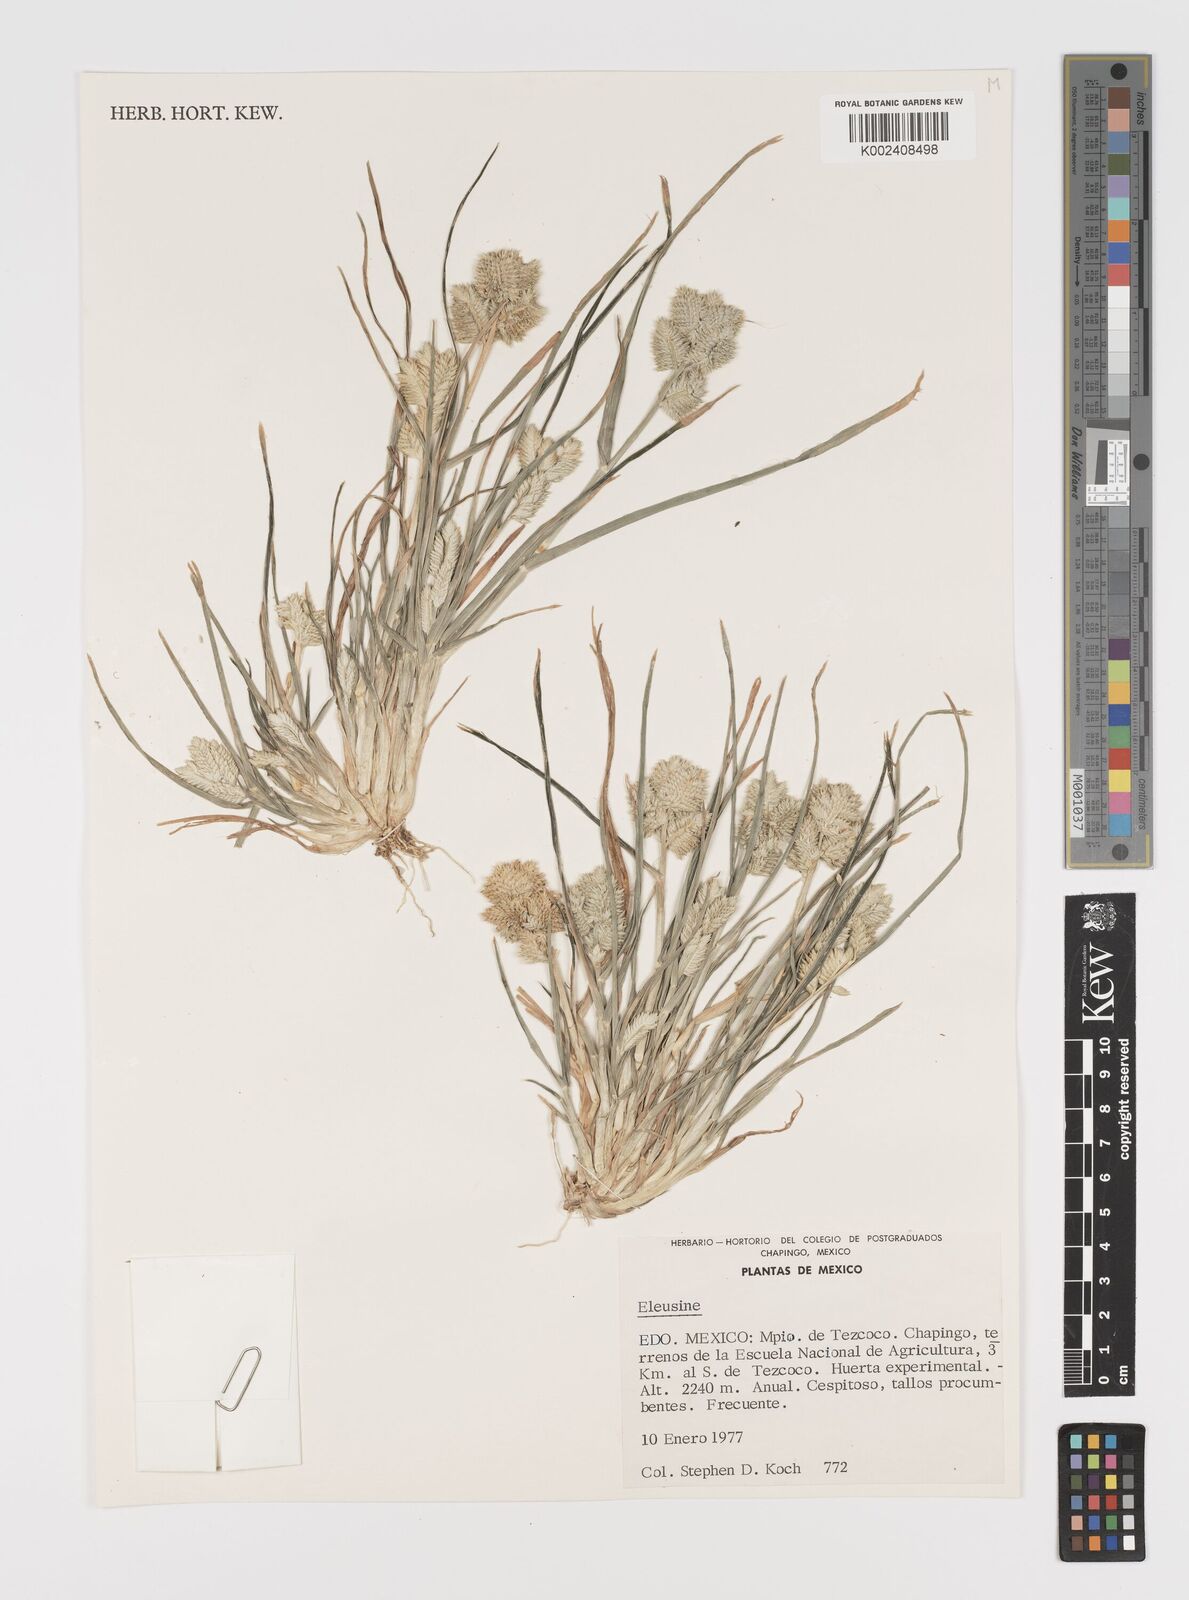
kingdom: Plantae
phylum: Tracheophyta
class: Liliopsida
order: Poales
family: Poaceae
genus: Eleusine
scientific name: Eleusine multiflora
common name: Fat-spiked yard-grass
